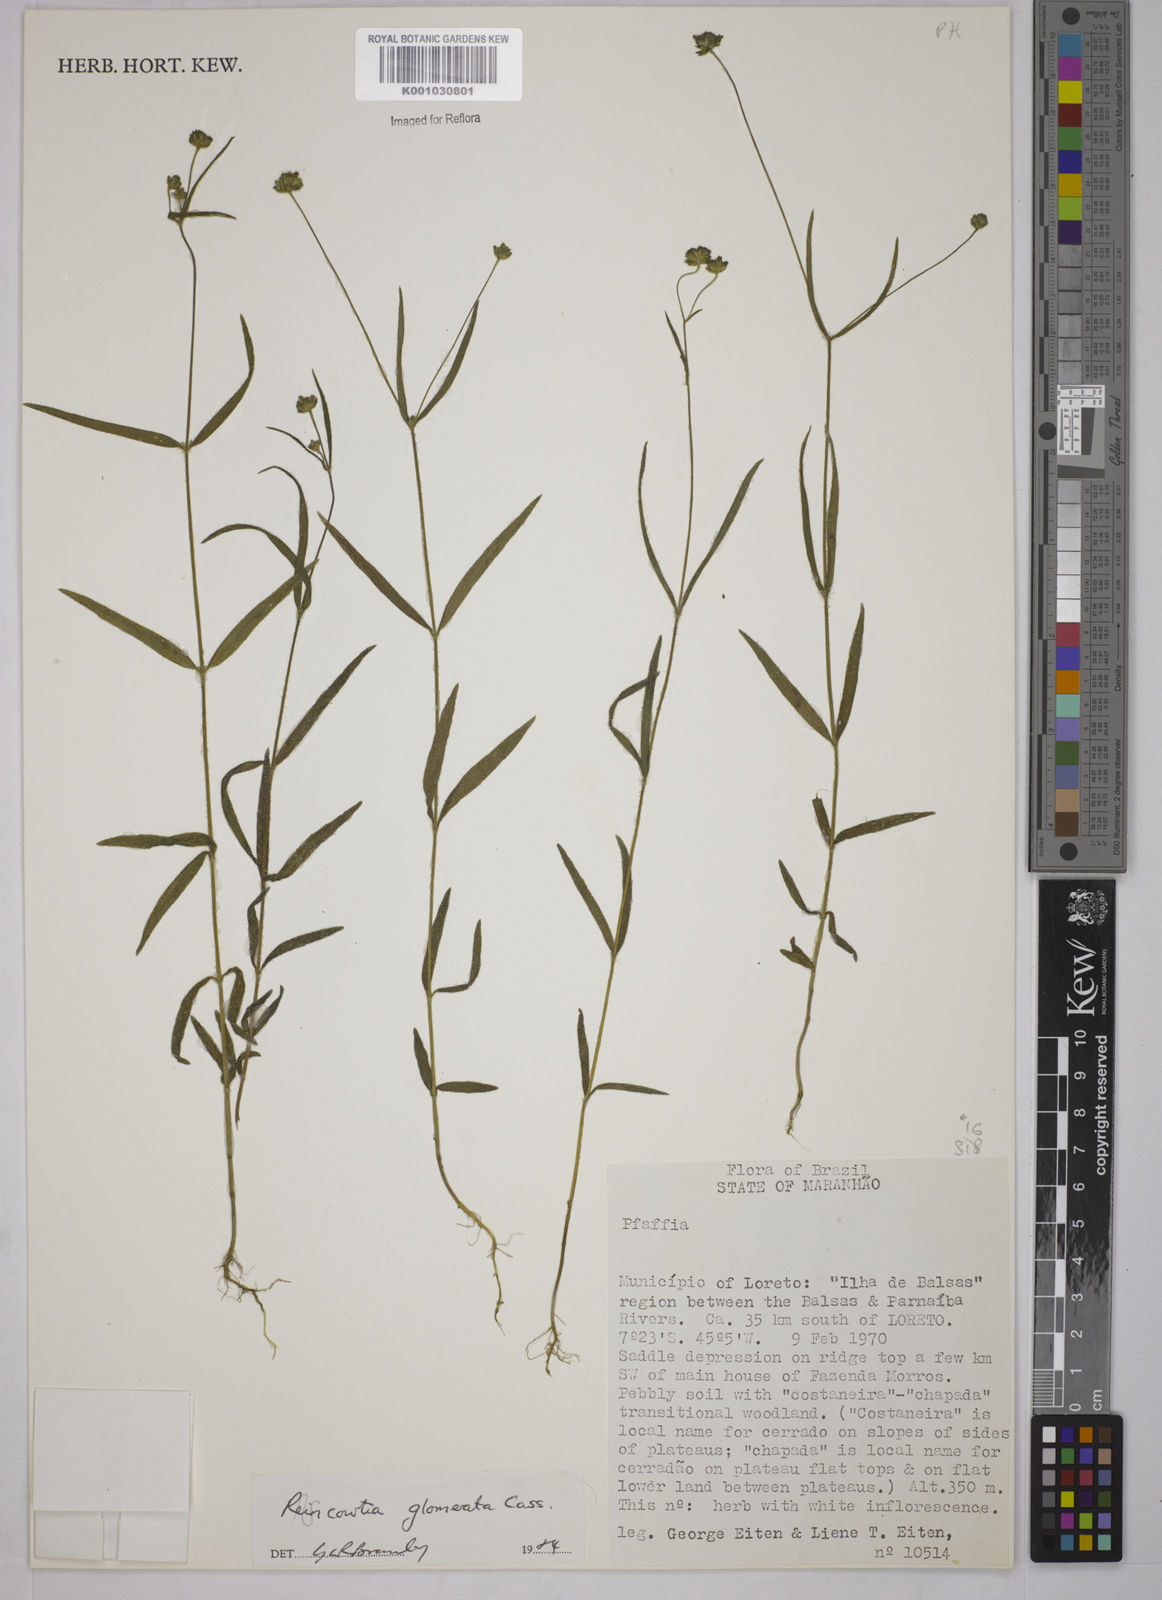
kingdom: Plantae
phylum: Tracheophyta
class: Magnoliopsida
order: Asterales
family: Asteraceae
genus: Riencourtia
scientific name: Riencourtia glomerata
